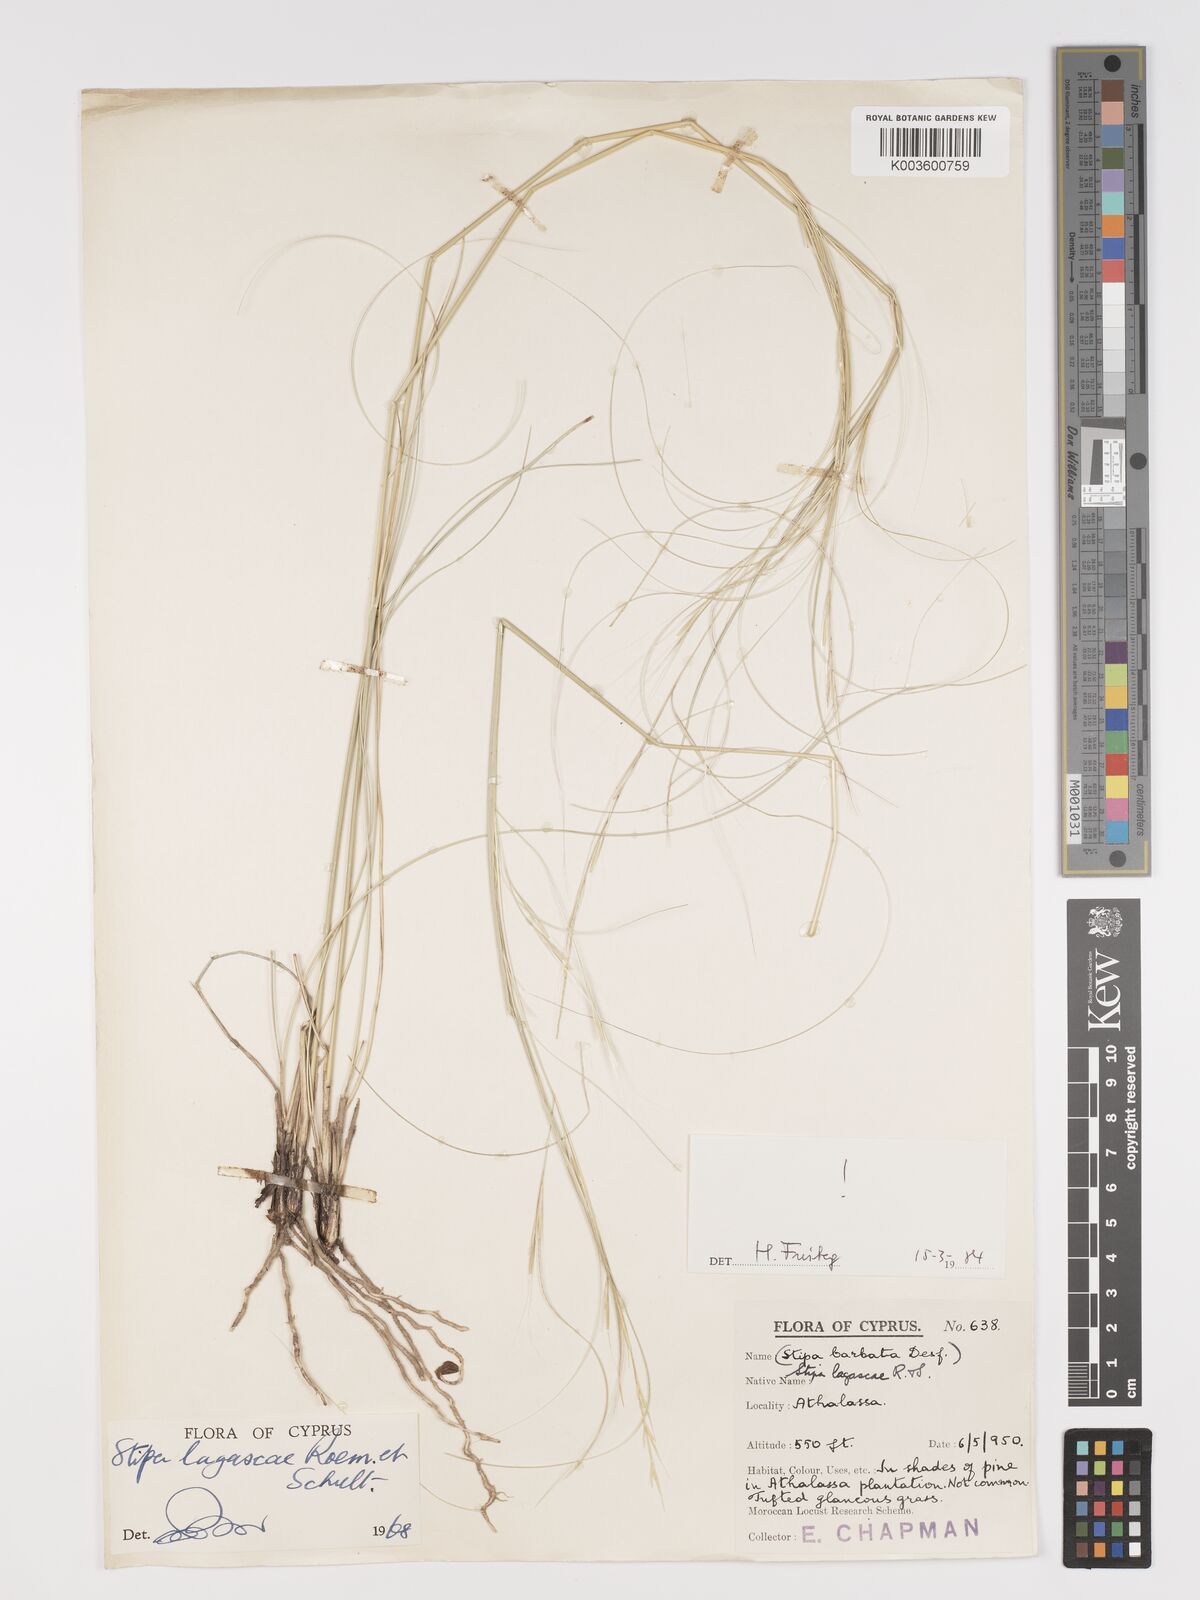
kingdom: Plantae
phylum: Tracheophyta
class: Liliopsida
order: Poales
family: Poaceae
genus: Stipa
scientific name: Stipa lagascae
